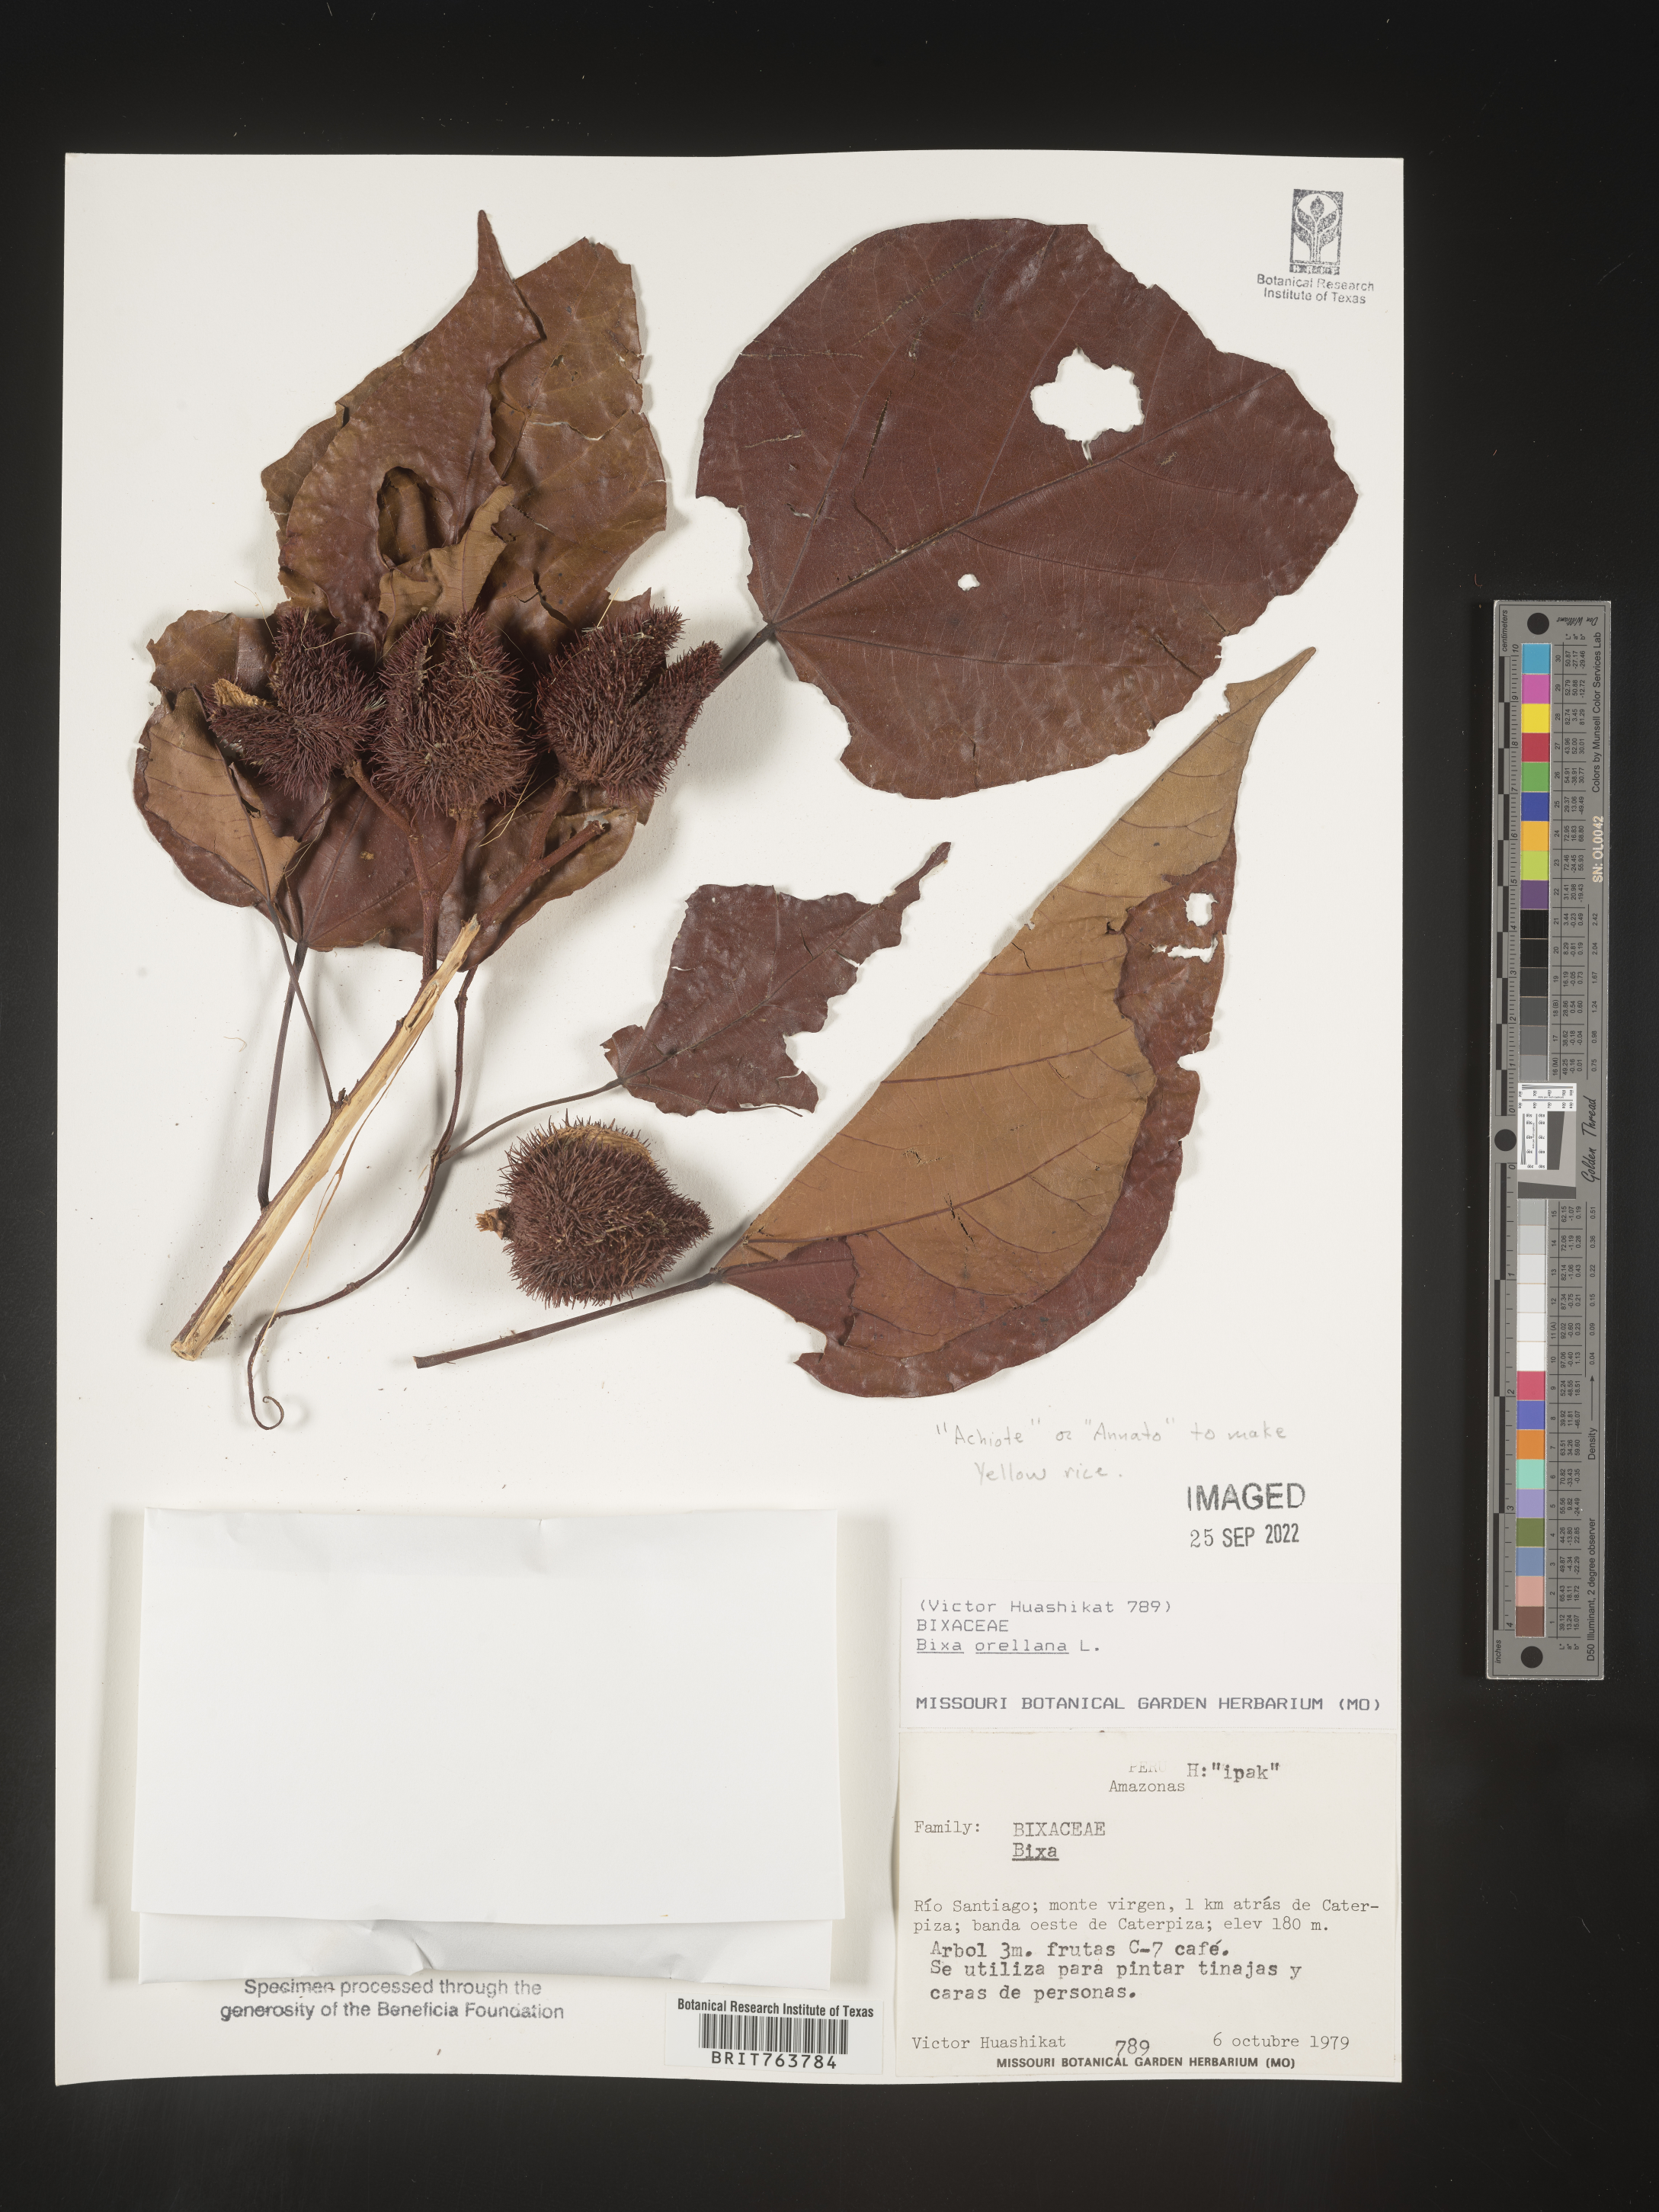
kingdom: Plantae
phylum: Tracheophyta
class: Magnoliopsida
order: Malvales
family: Bixaceae
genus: Bixa
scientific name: Bixa
